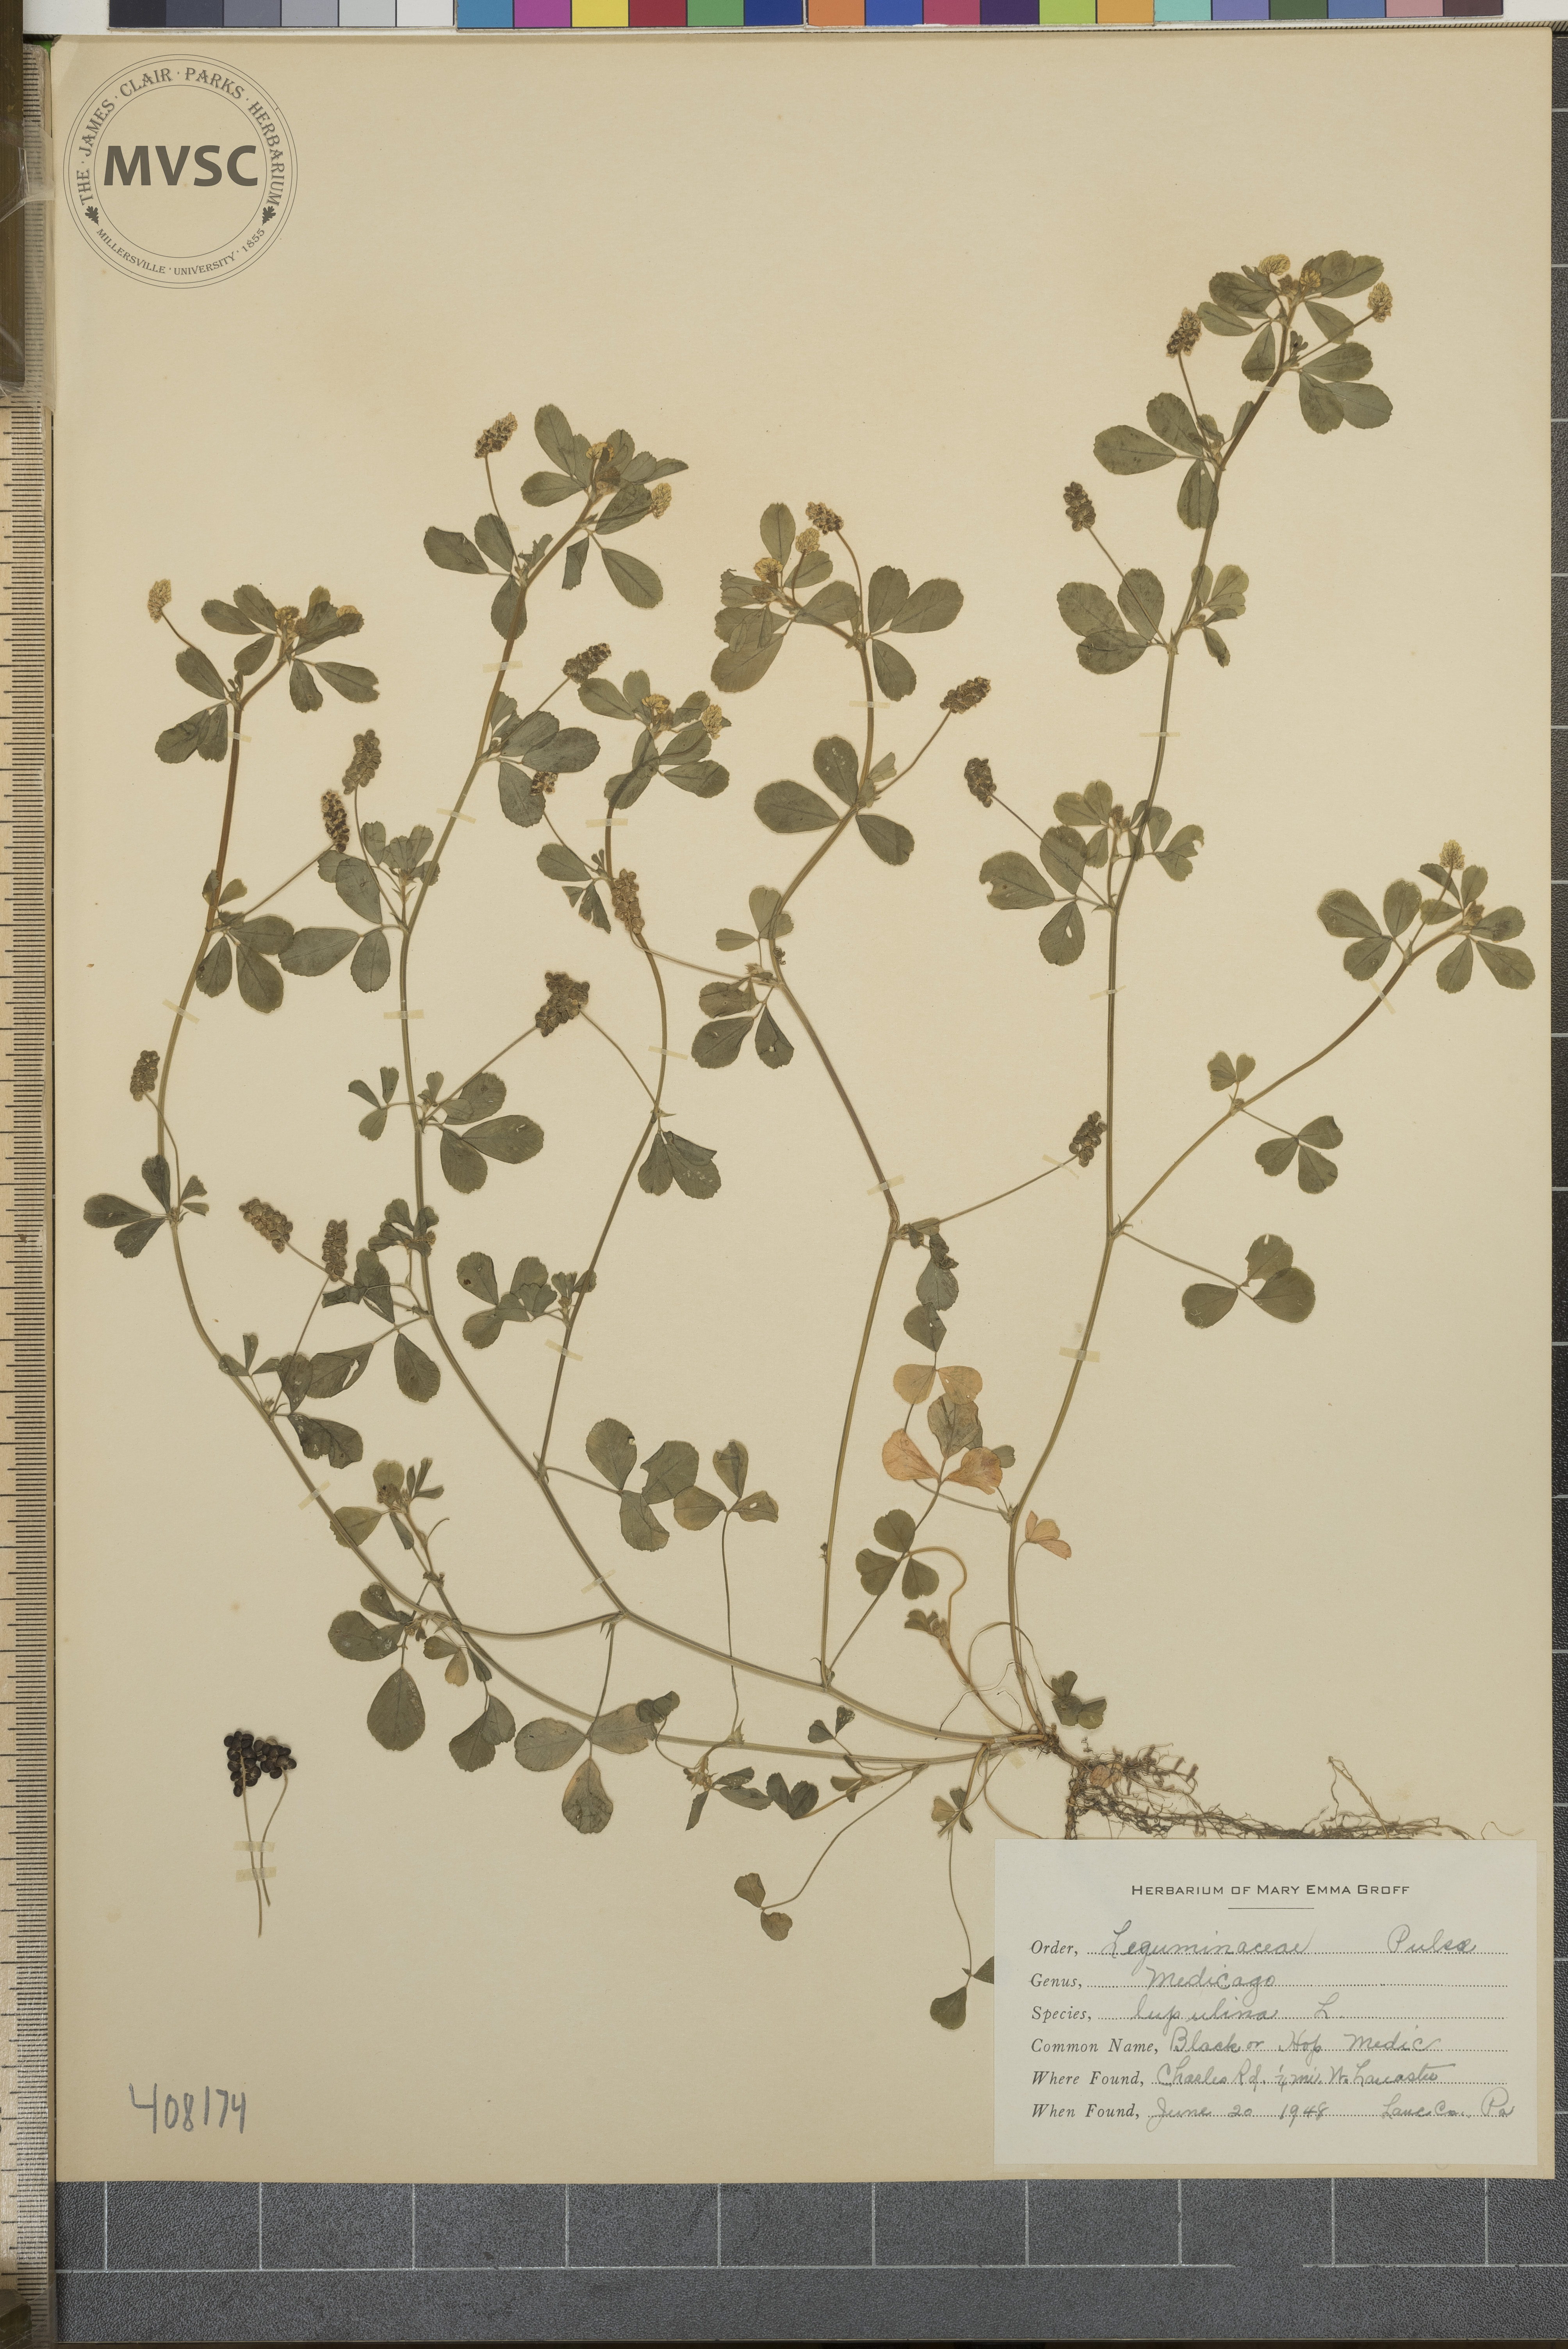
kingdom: Plantae
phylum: Tracheophyta
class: Magnoliopsida
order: Fabales
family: Fabaceae
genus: Medicago
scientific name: Medicago lupulina
